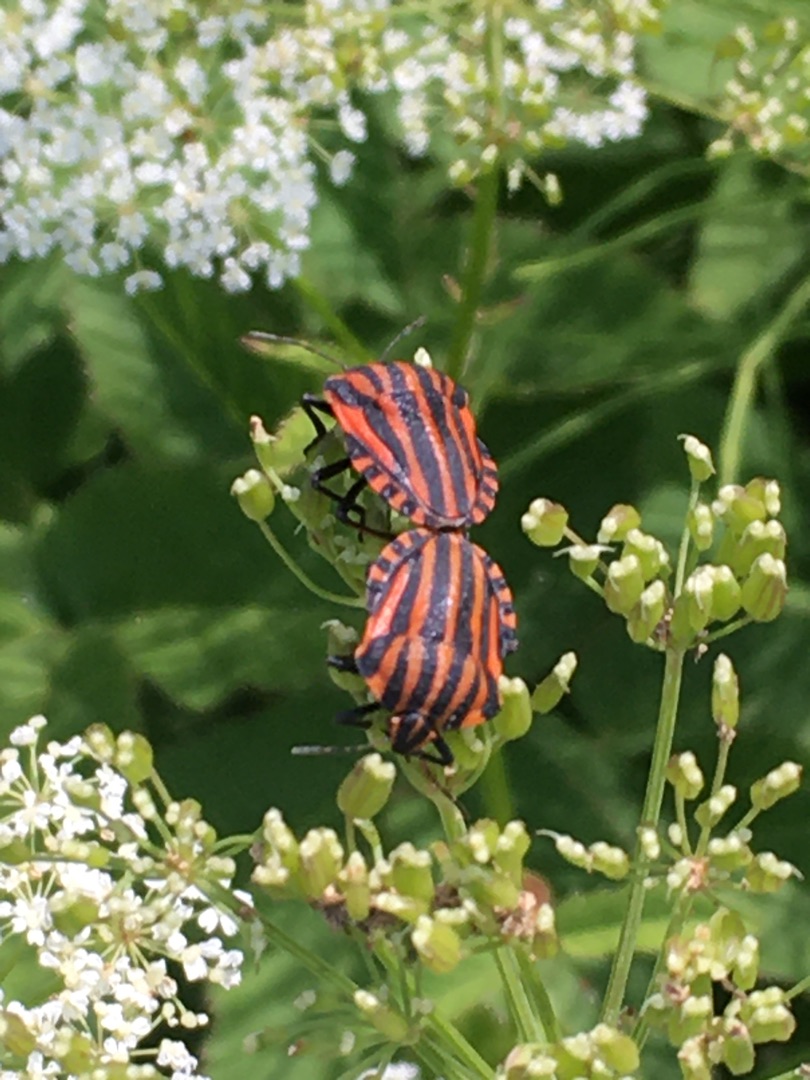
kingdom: Animalia
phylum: Arthropoda
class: Insecta
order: Hemiptera
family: Pentatomidae
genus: Graphosoma
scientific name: Graphosoma italicum
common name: Stribetæge
